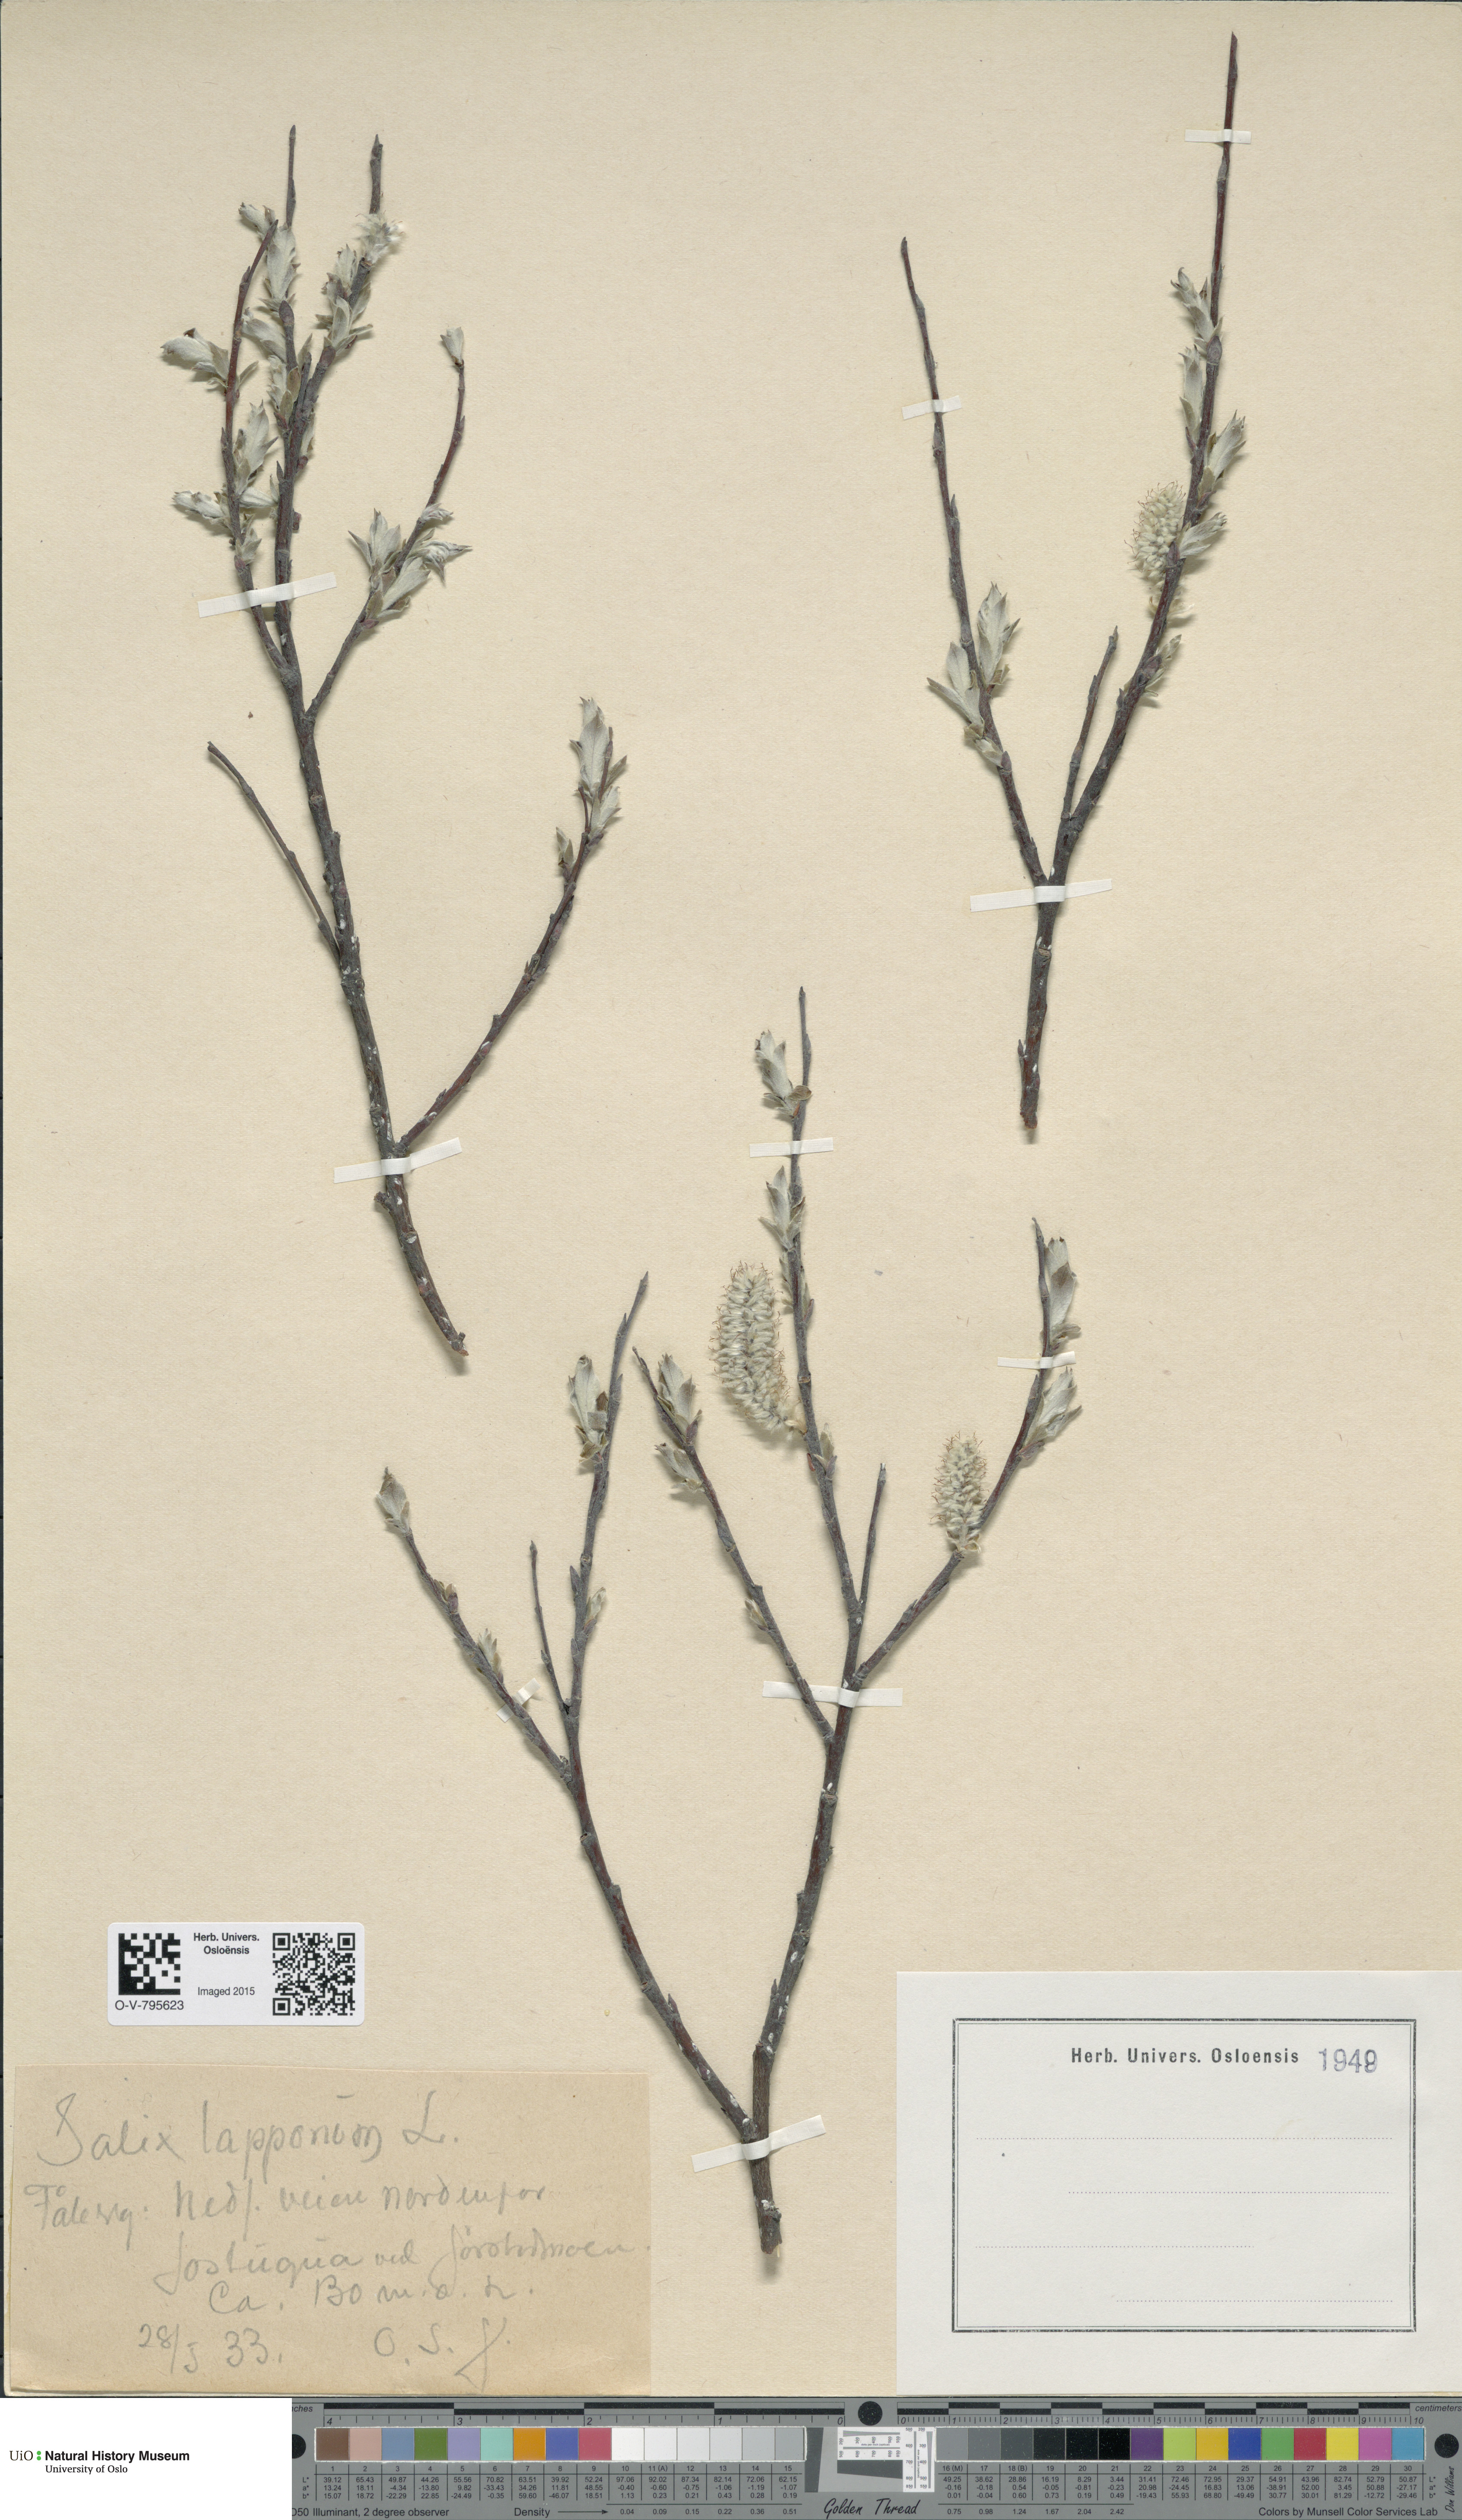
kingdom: Plantae
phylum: Tracheophyta
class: Magnoliopsida
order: Malpighiales
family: Salicaceae
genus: Salix
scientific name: Salix lapponum
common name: Downy willow
